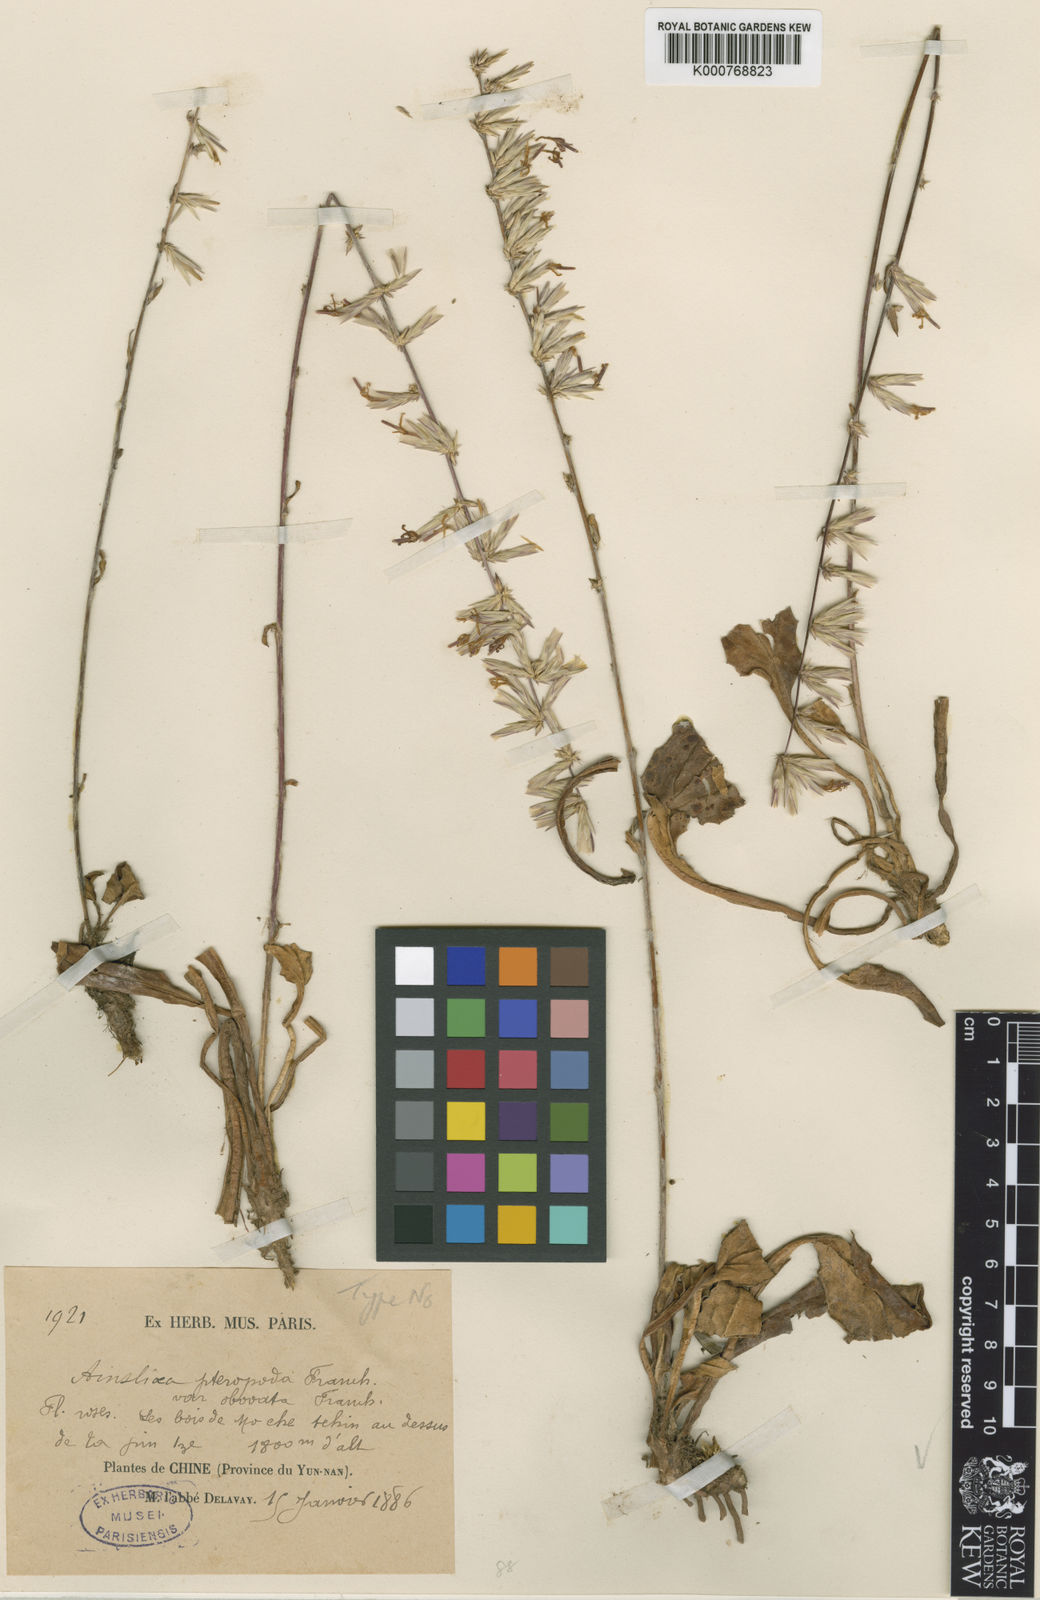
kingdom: Plantae
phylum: Tracheophyta
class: Magnoliopsida
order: Asterales
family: Asteraceae
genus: Ainsliaea
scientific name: Ainsliaea spicata
